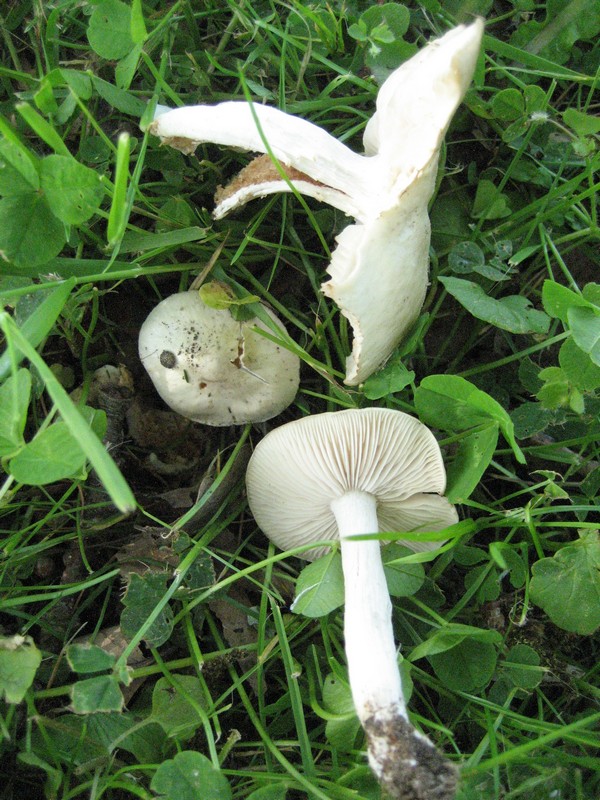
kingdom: Fungi
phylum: Basidiomycota
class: Agaricomycetes
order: Agaricales
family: Entolomataceae
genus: Entoloma
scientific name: Entoloma sepium
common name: slåen-rødblad
